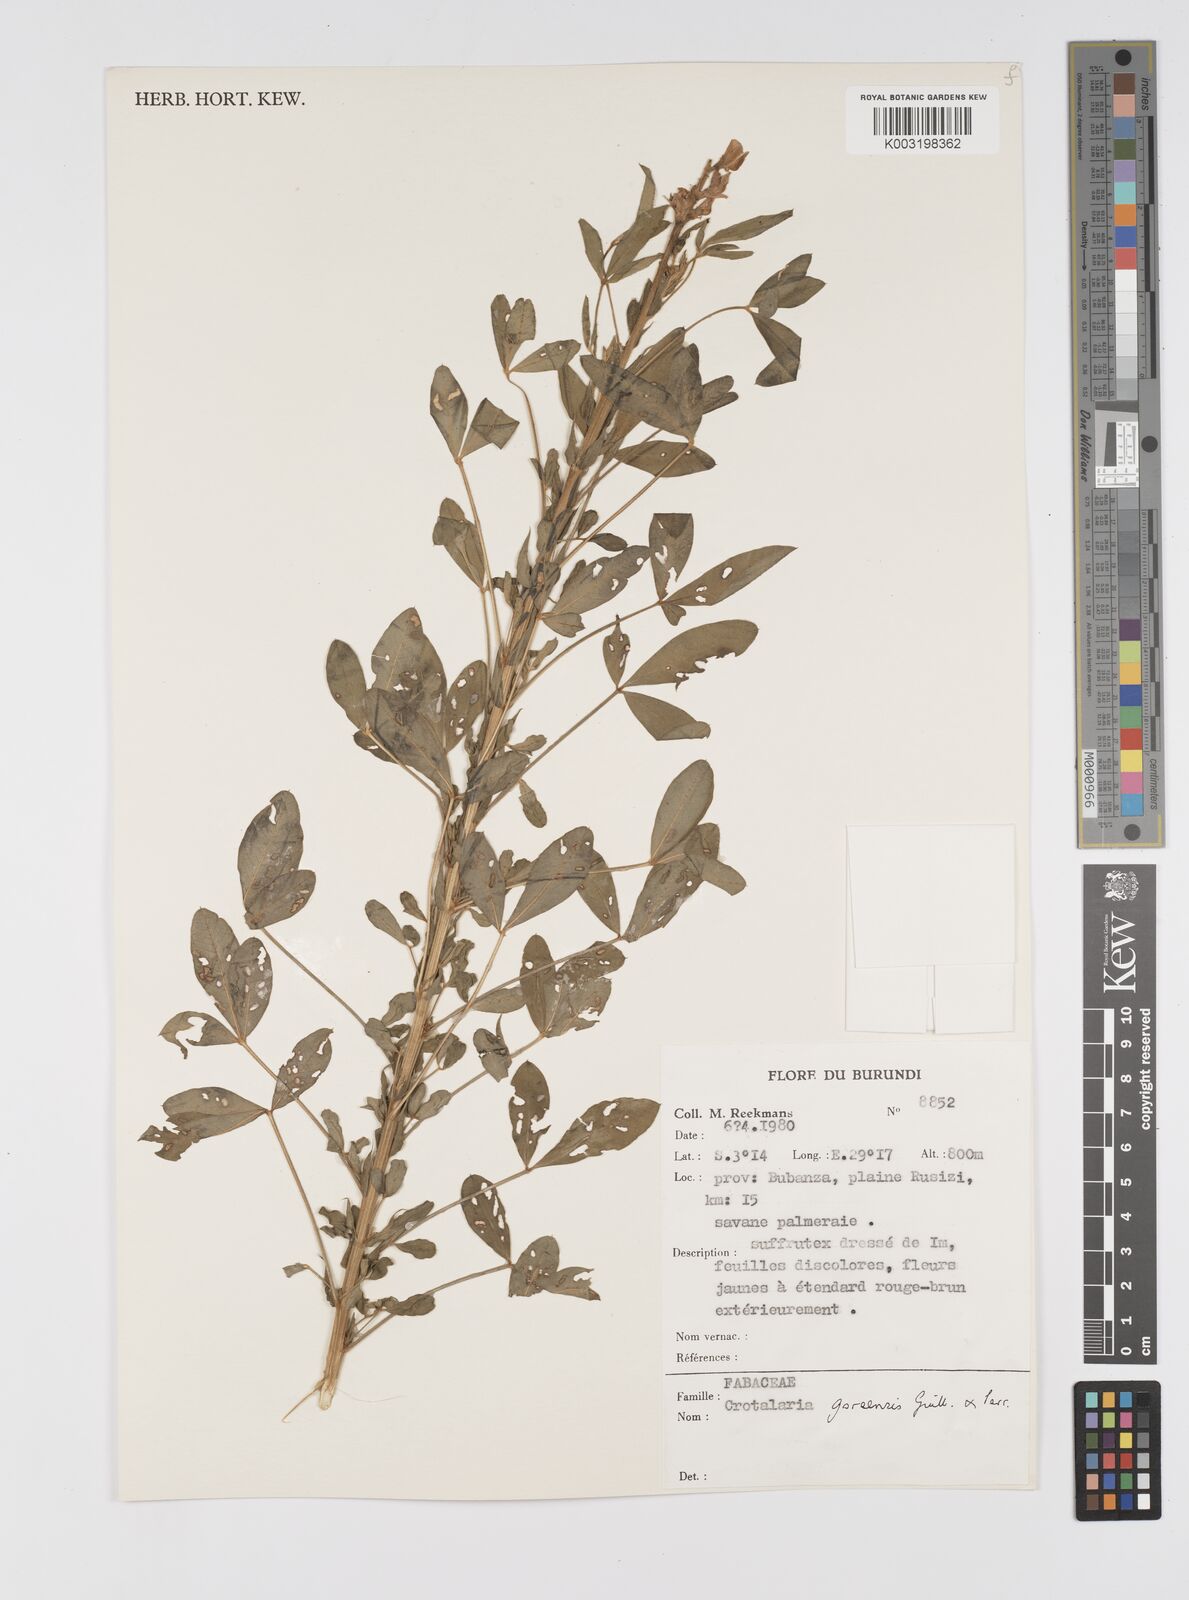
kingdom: Plantae
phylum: Tracheophyta
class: Magnoliopsida
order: Fabales
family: Fabaceae
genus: Crotalaria
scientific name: Crotalaria goreensis
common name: Gambia-pea
